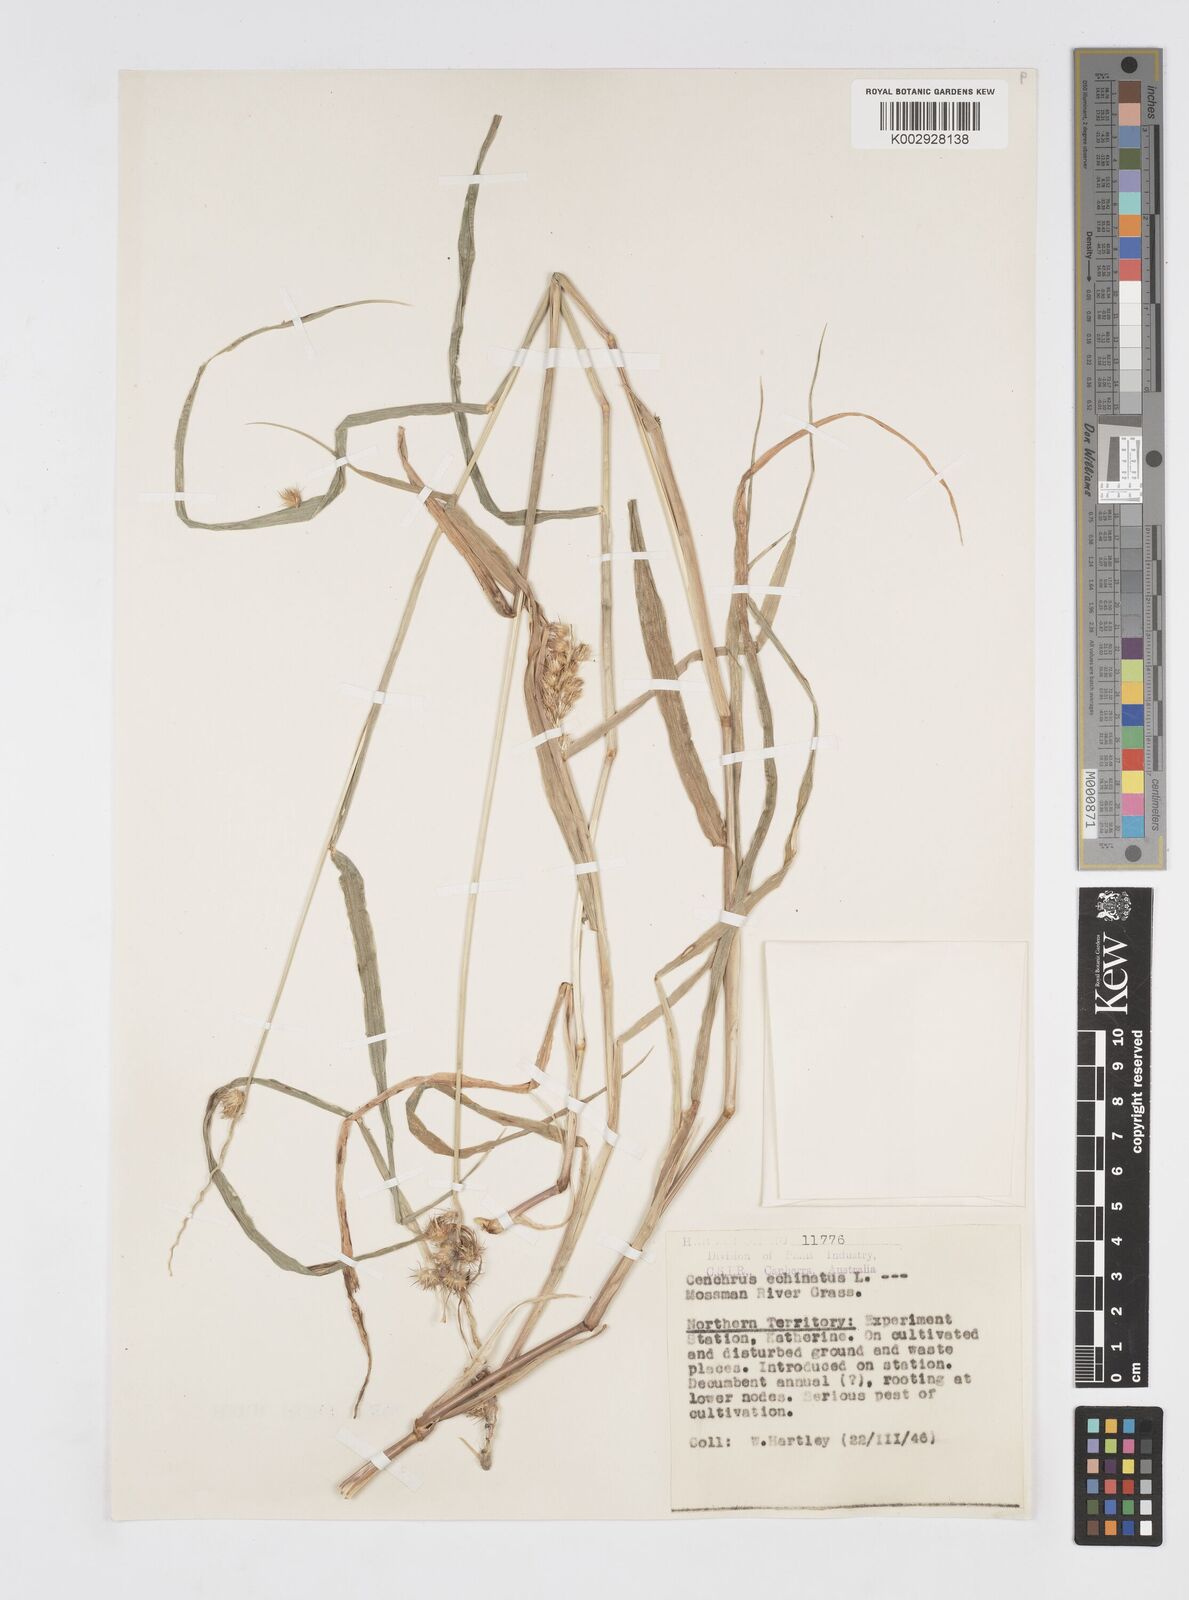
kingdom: Plantae
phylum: Tracheophyta
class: Liliopsida
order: Poales
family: Poaceae
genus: Cenchrus
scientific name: Cenchrus echinatus
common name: Southern sandbur
